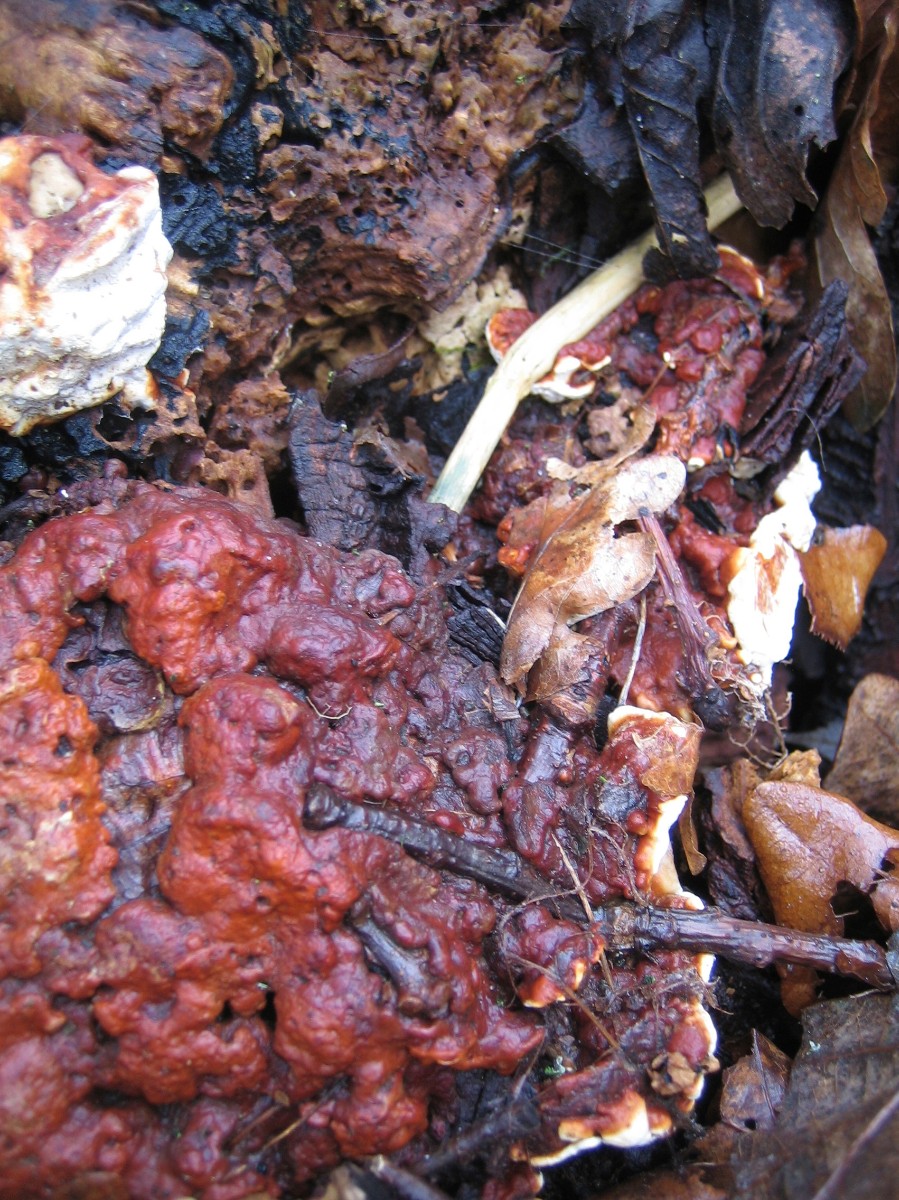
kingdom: Fungi
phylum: Basidiomycota
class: Agaricomycetes
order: Russulales
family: Bondarzewiaceae
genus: Heterobasidion
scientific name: Heterobasidion annosum
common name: almindelig rodfordærver
